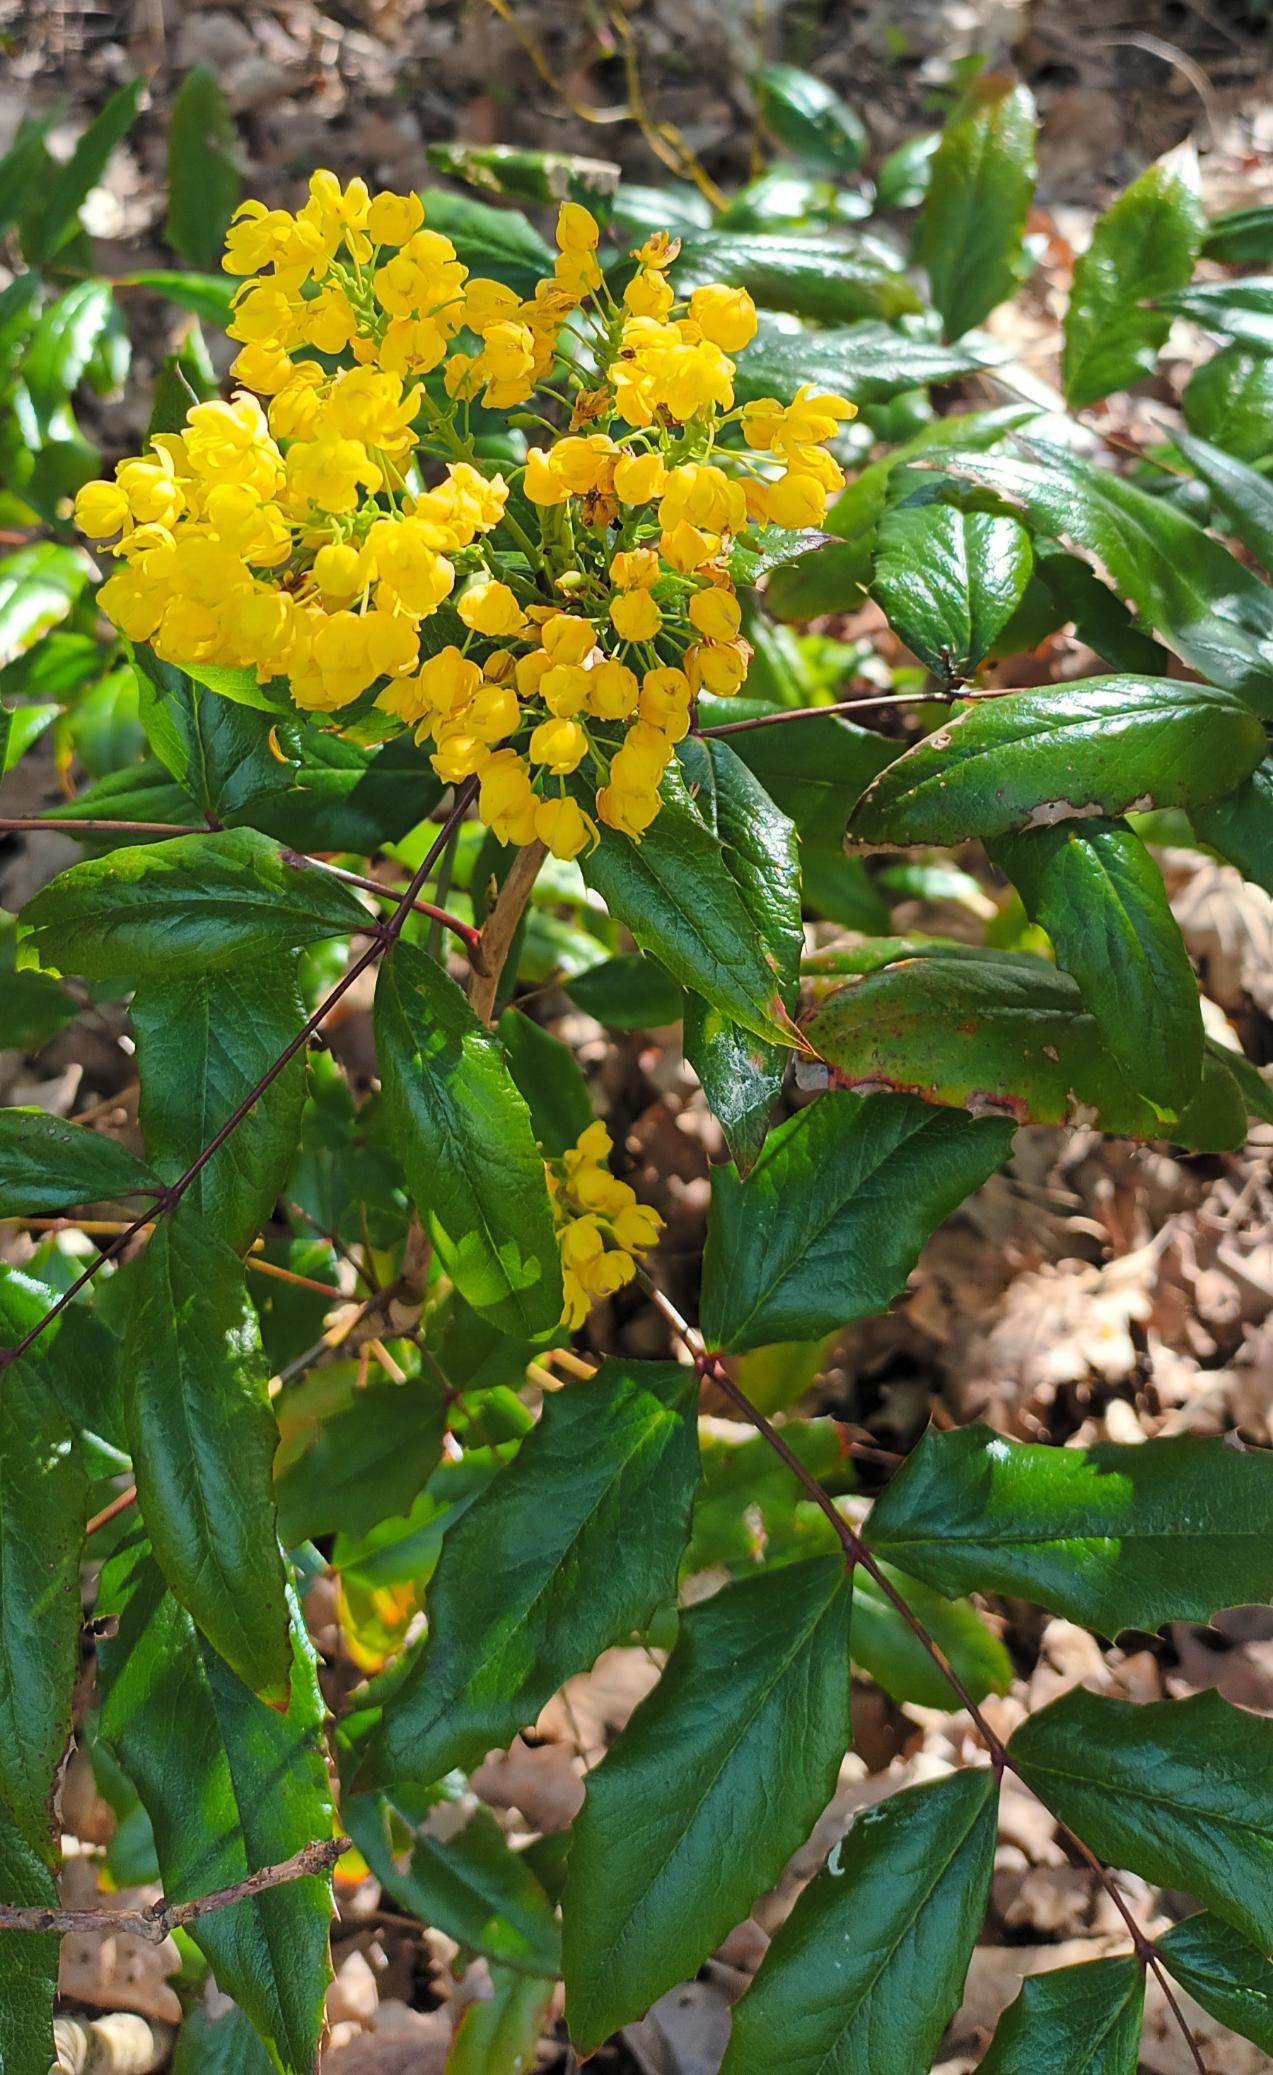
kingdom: Plantae
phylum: Tracheophyta
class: Magnoliopsida
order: Ranunculales
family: Berberidaceae
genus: Mahonia
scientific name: Mahonia aquifolium
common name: Almindelig mahonie
